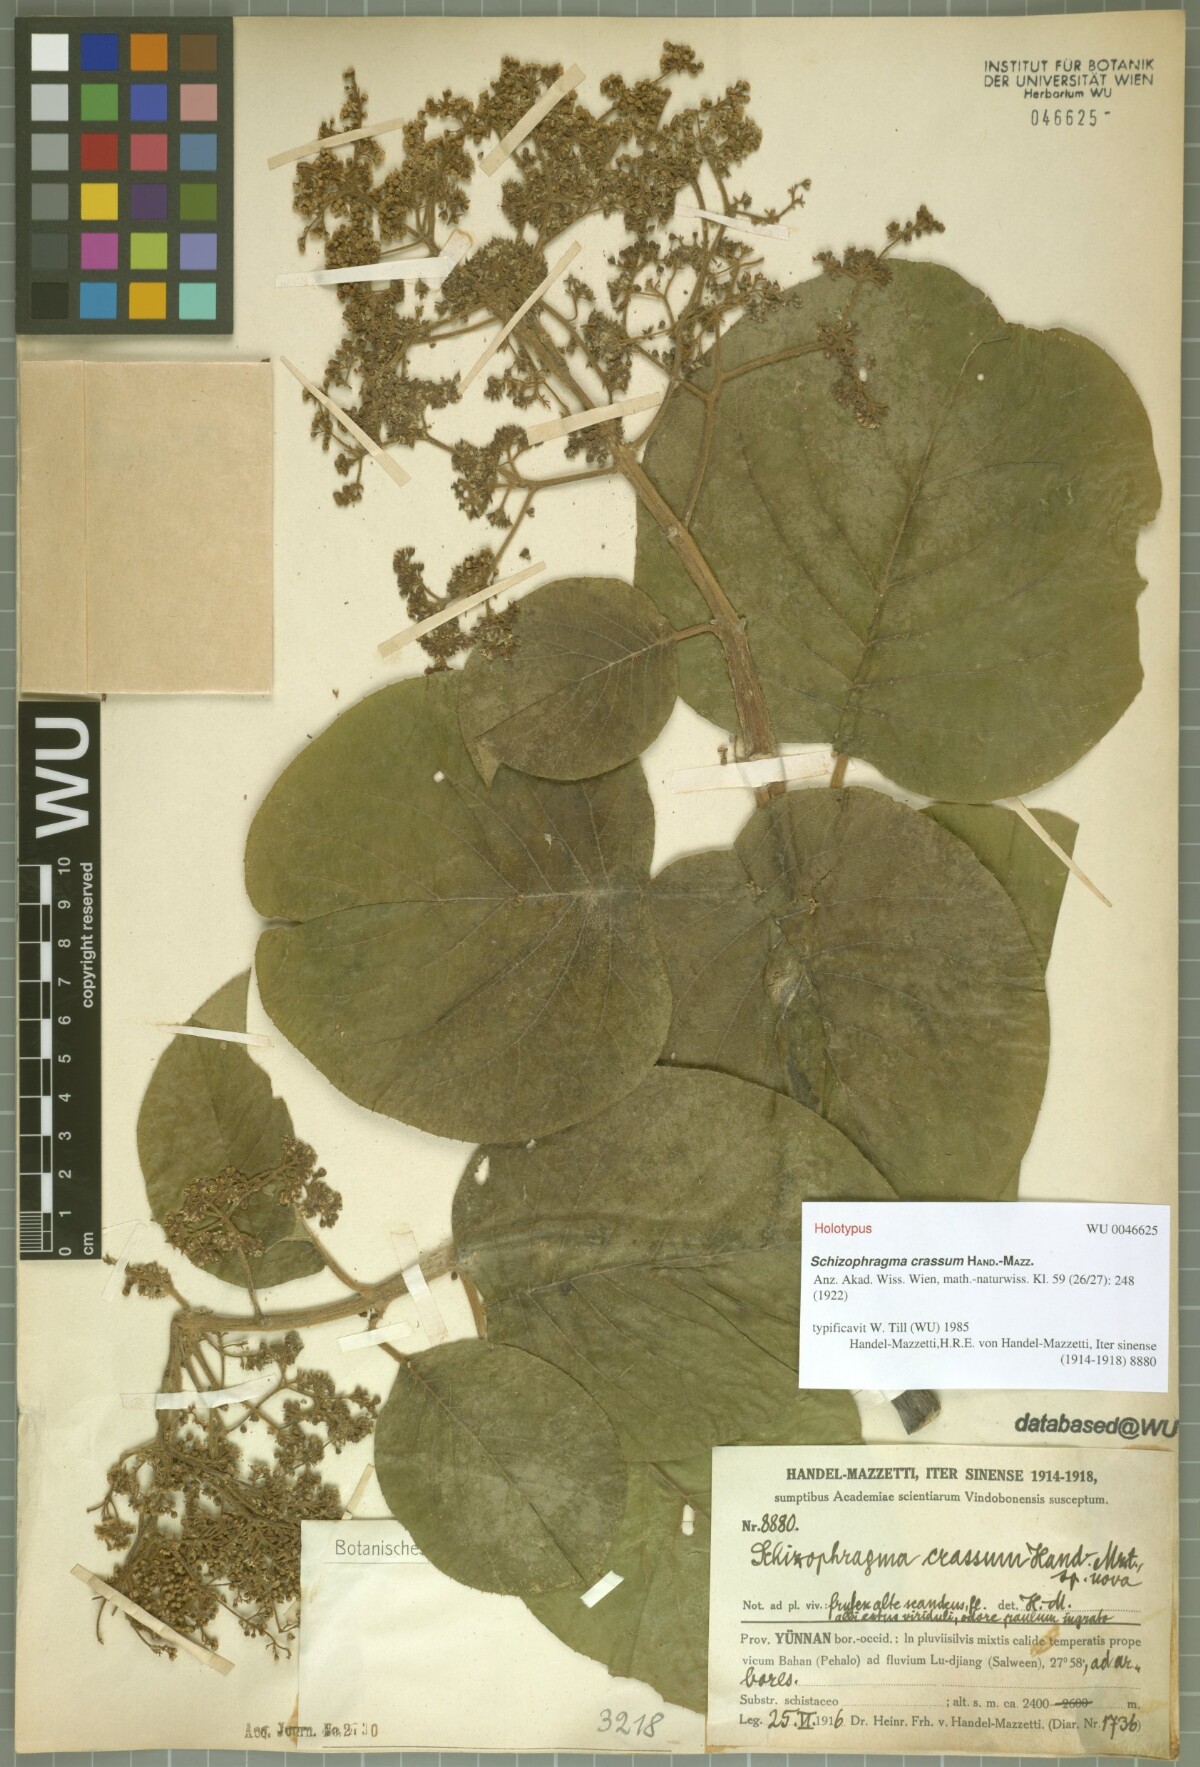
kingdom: Plantae
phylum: Tracheophyta
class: Magnoliopsida
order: Cornales
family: Hydrangeaceae
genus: Hydrangea
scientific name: Hydrangea crassa
